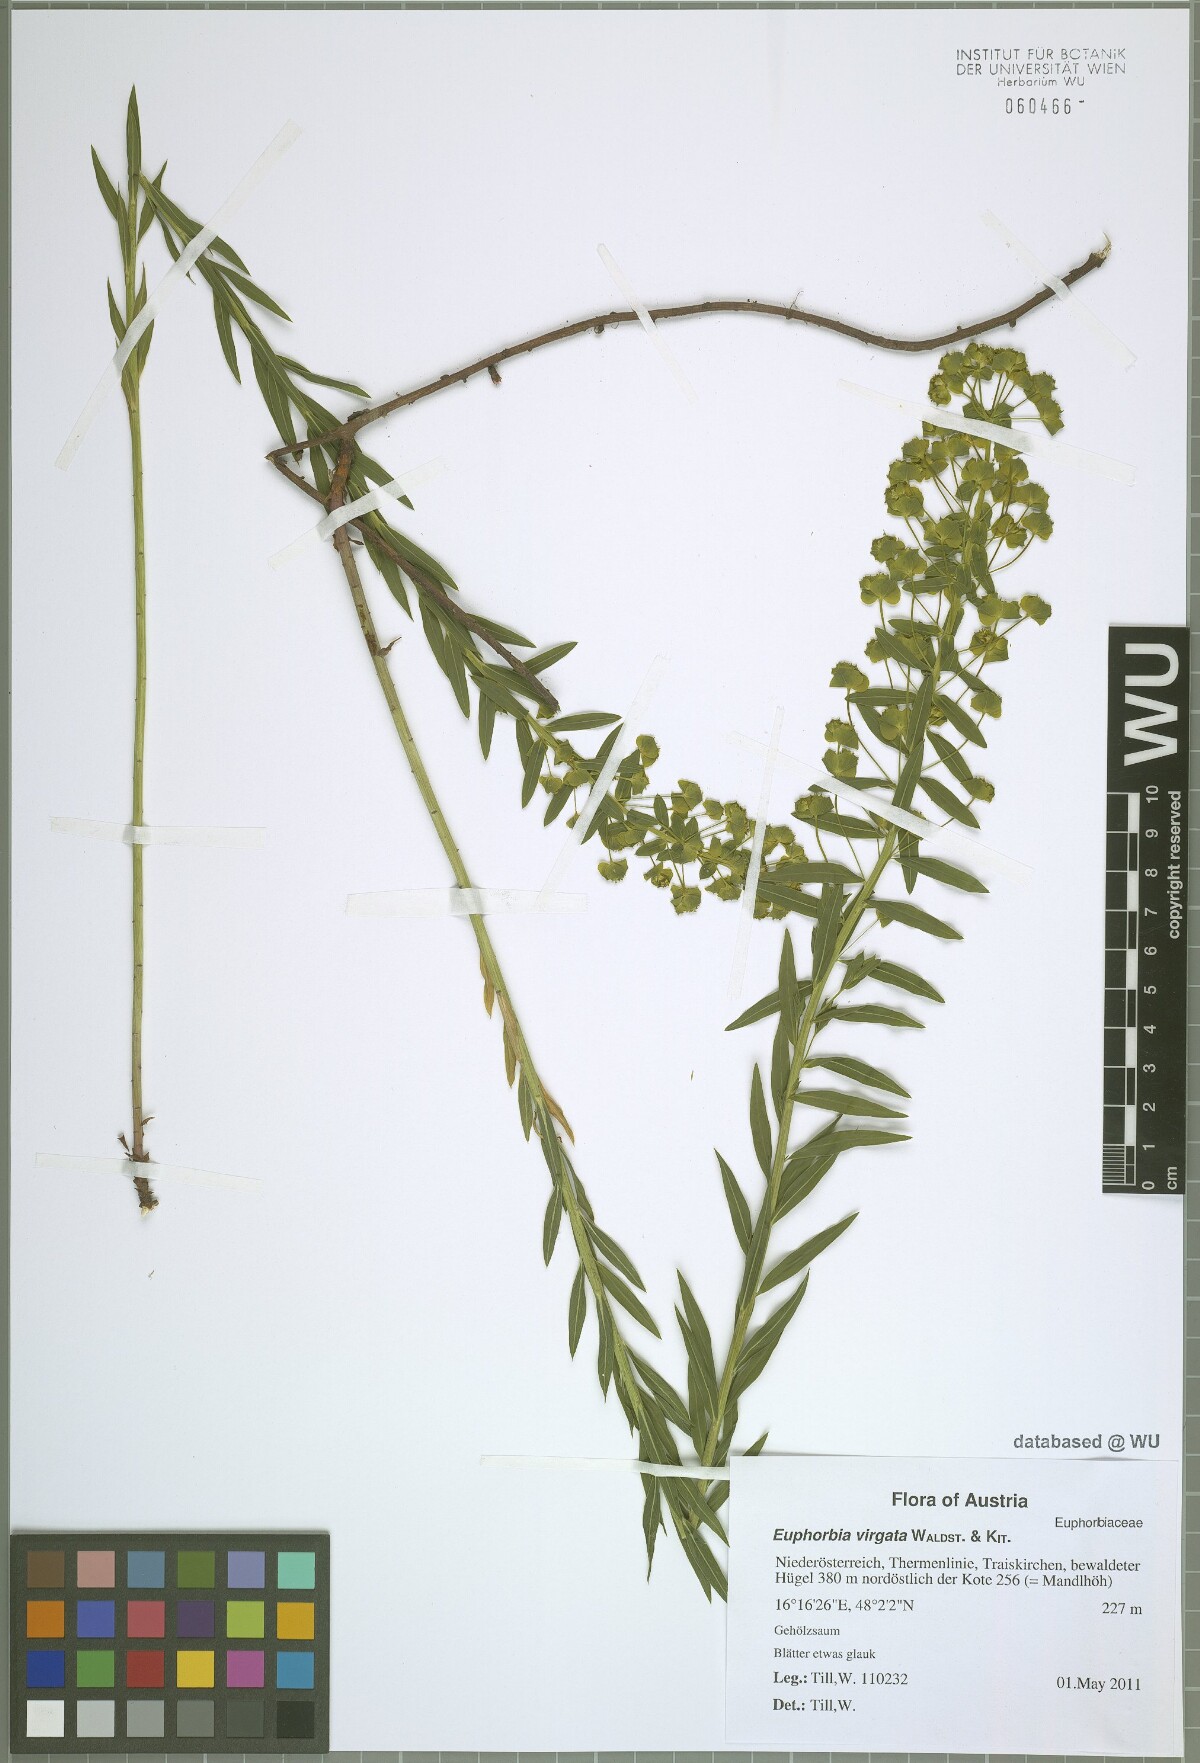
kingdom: Plantae
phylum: Tracheophyta
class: Magnoliopsida
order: Malpighiales
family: Euphorbiaceae
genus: Euphorbia
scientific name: Euphorbia virgata
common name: Leafy spurge
